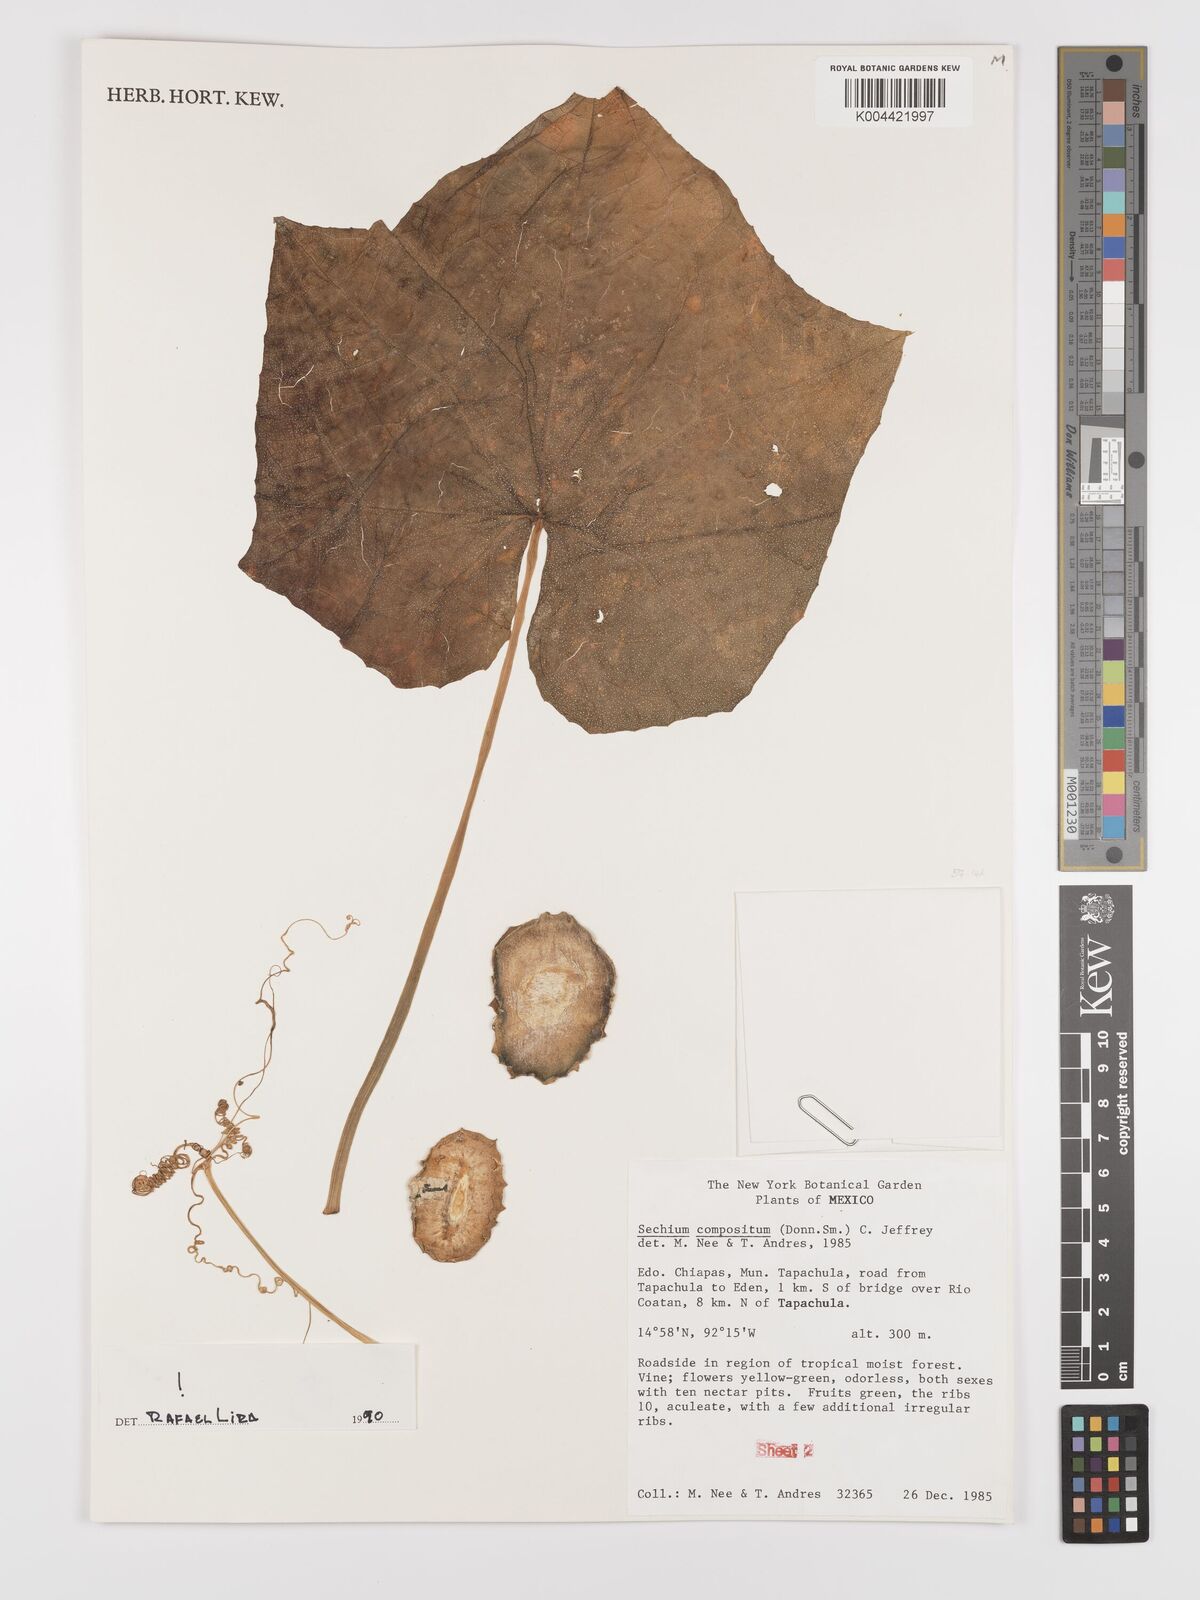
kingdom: Plantae
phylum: Tracheophyta
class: Magnoliopsida
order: Cucurbitales
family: Cucurbitaceae
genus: Sechium
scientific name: Sechium compositum
